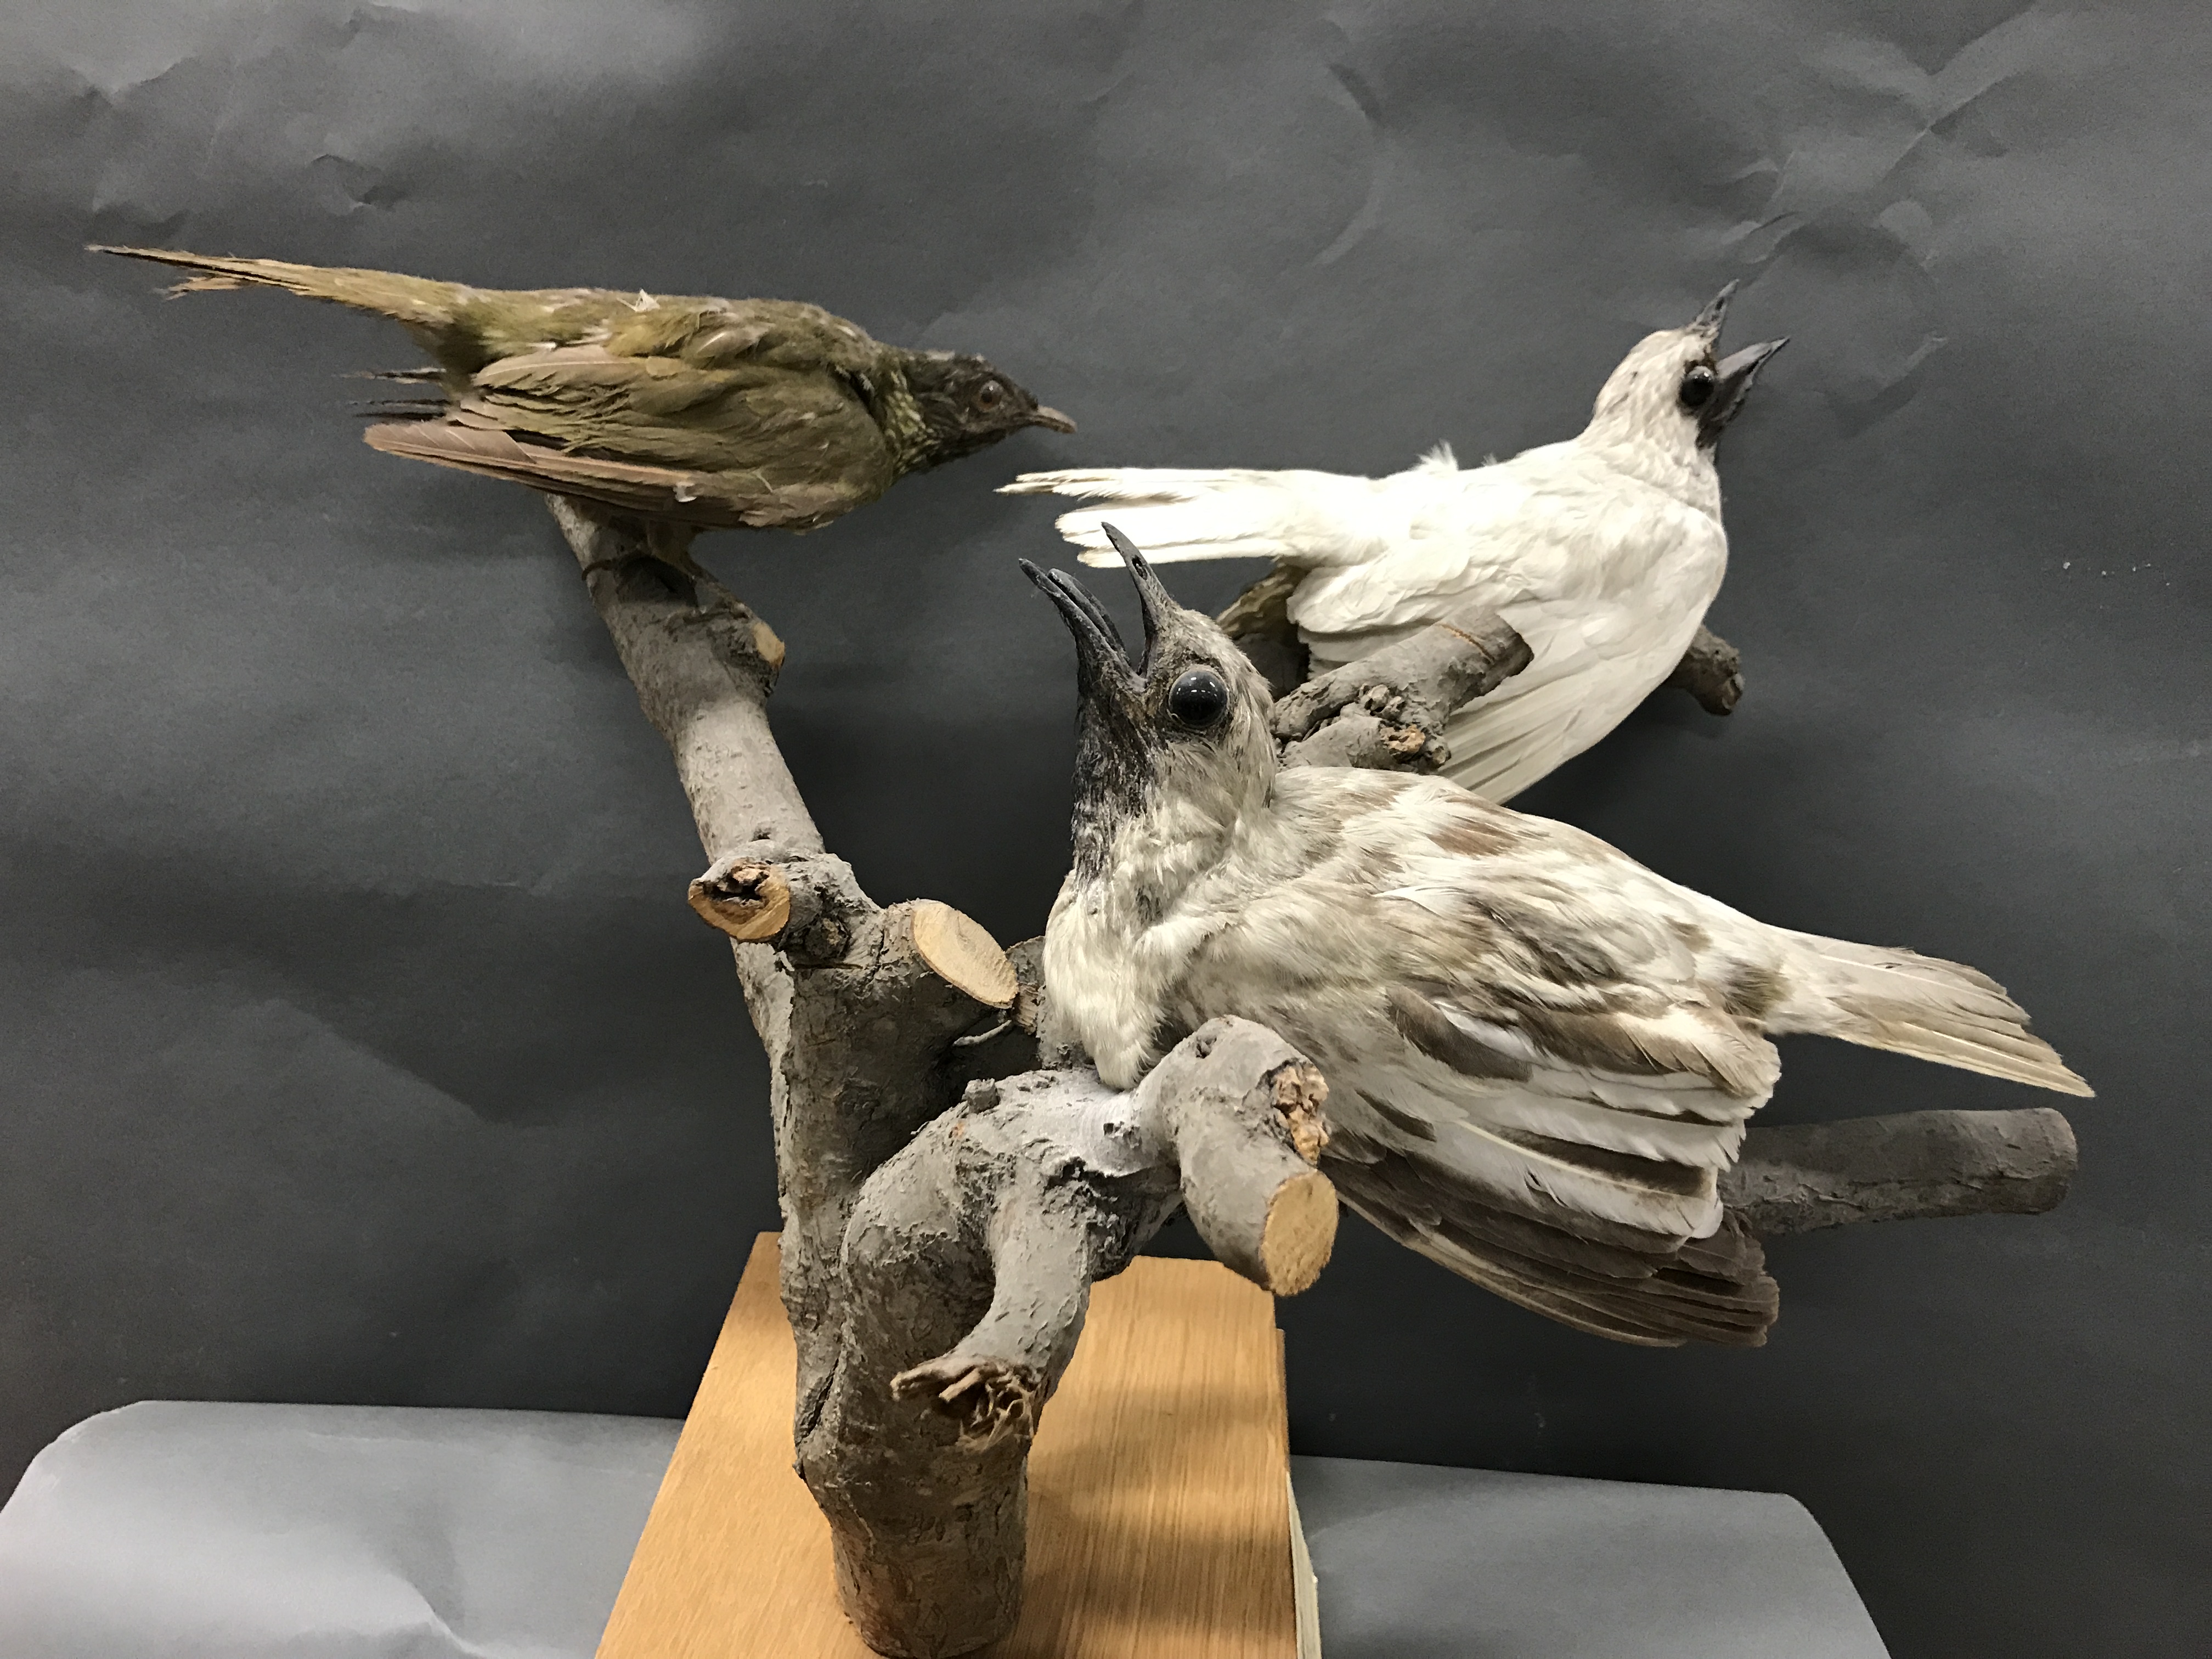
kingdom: Animalia
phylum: Chordata
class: Aves
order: Passeriformes
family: Cotingidae
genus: Procnias
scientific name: Procnias nudicollis
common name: Bare-throated bellbird
